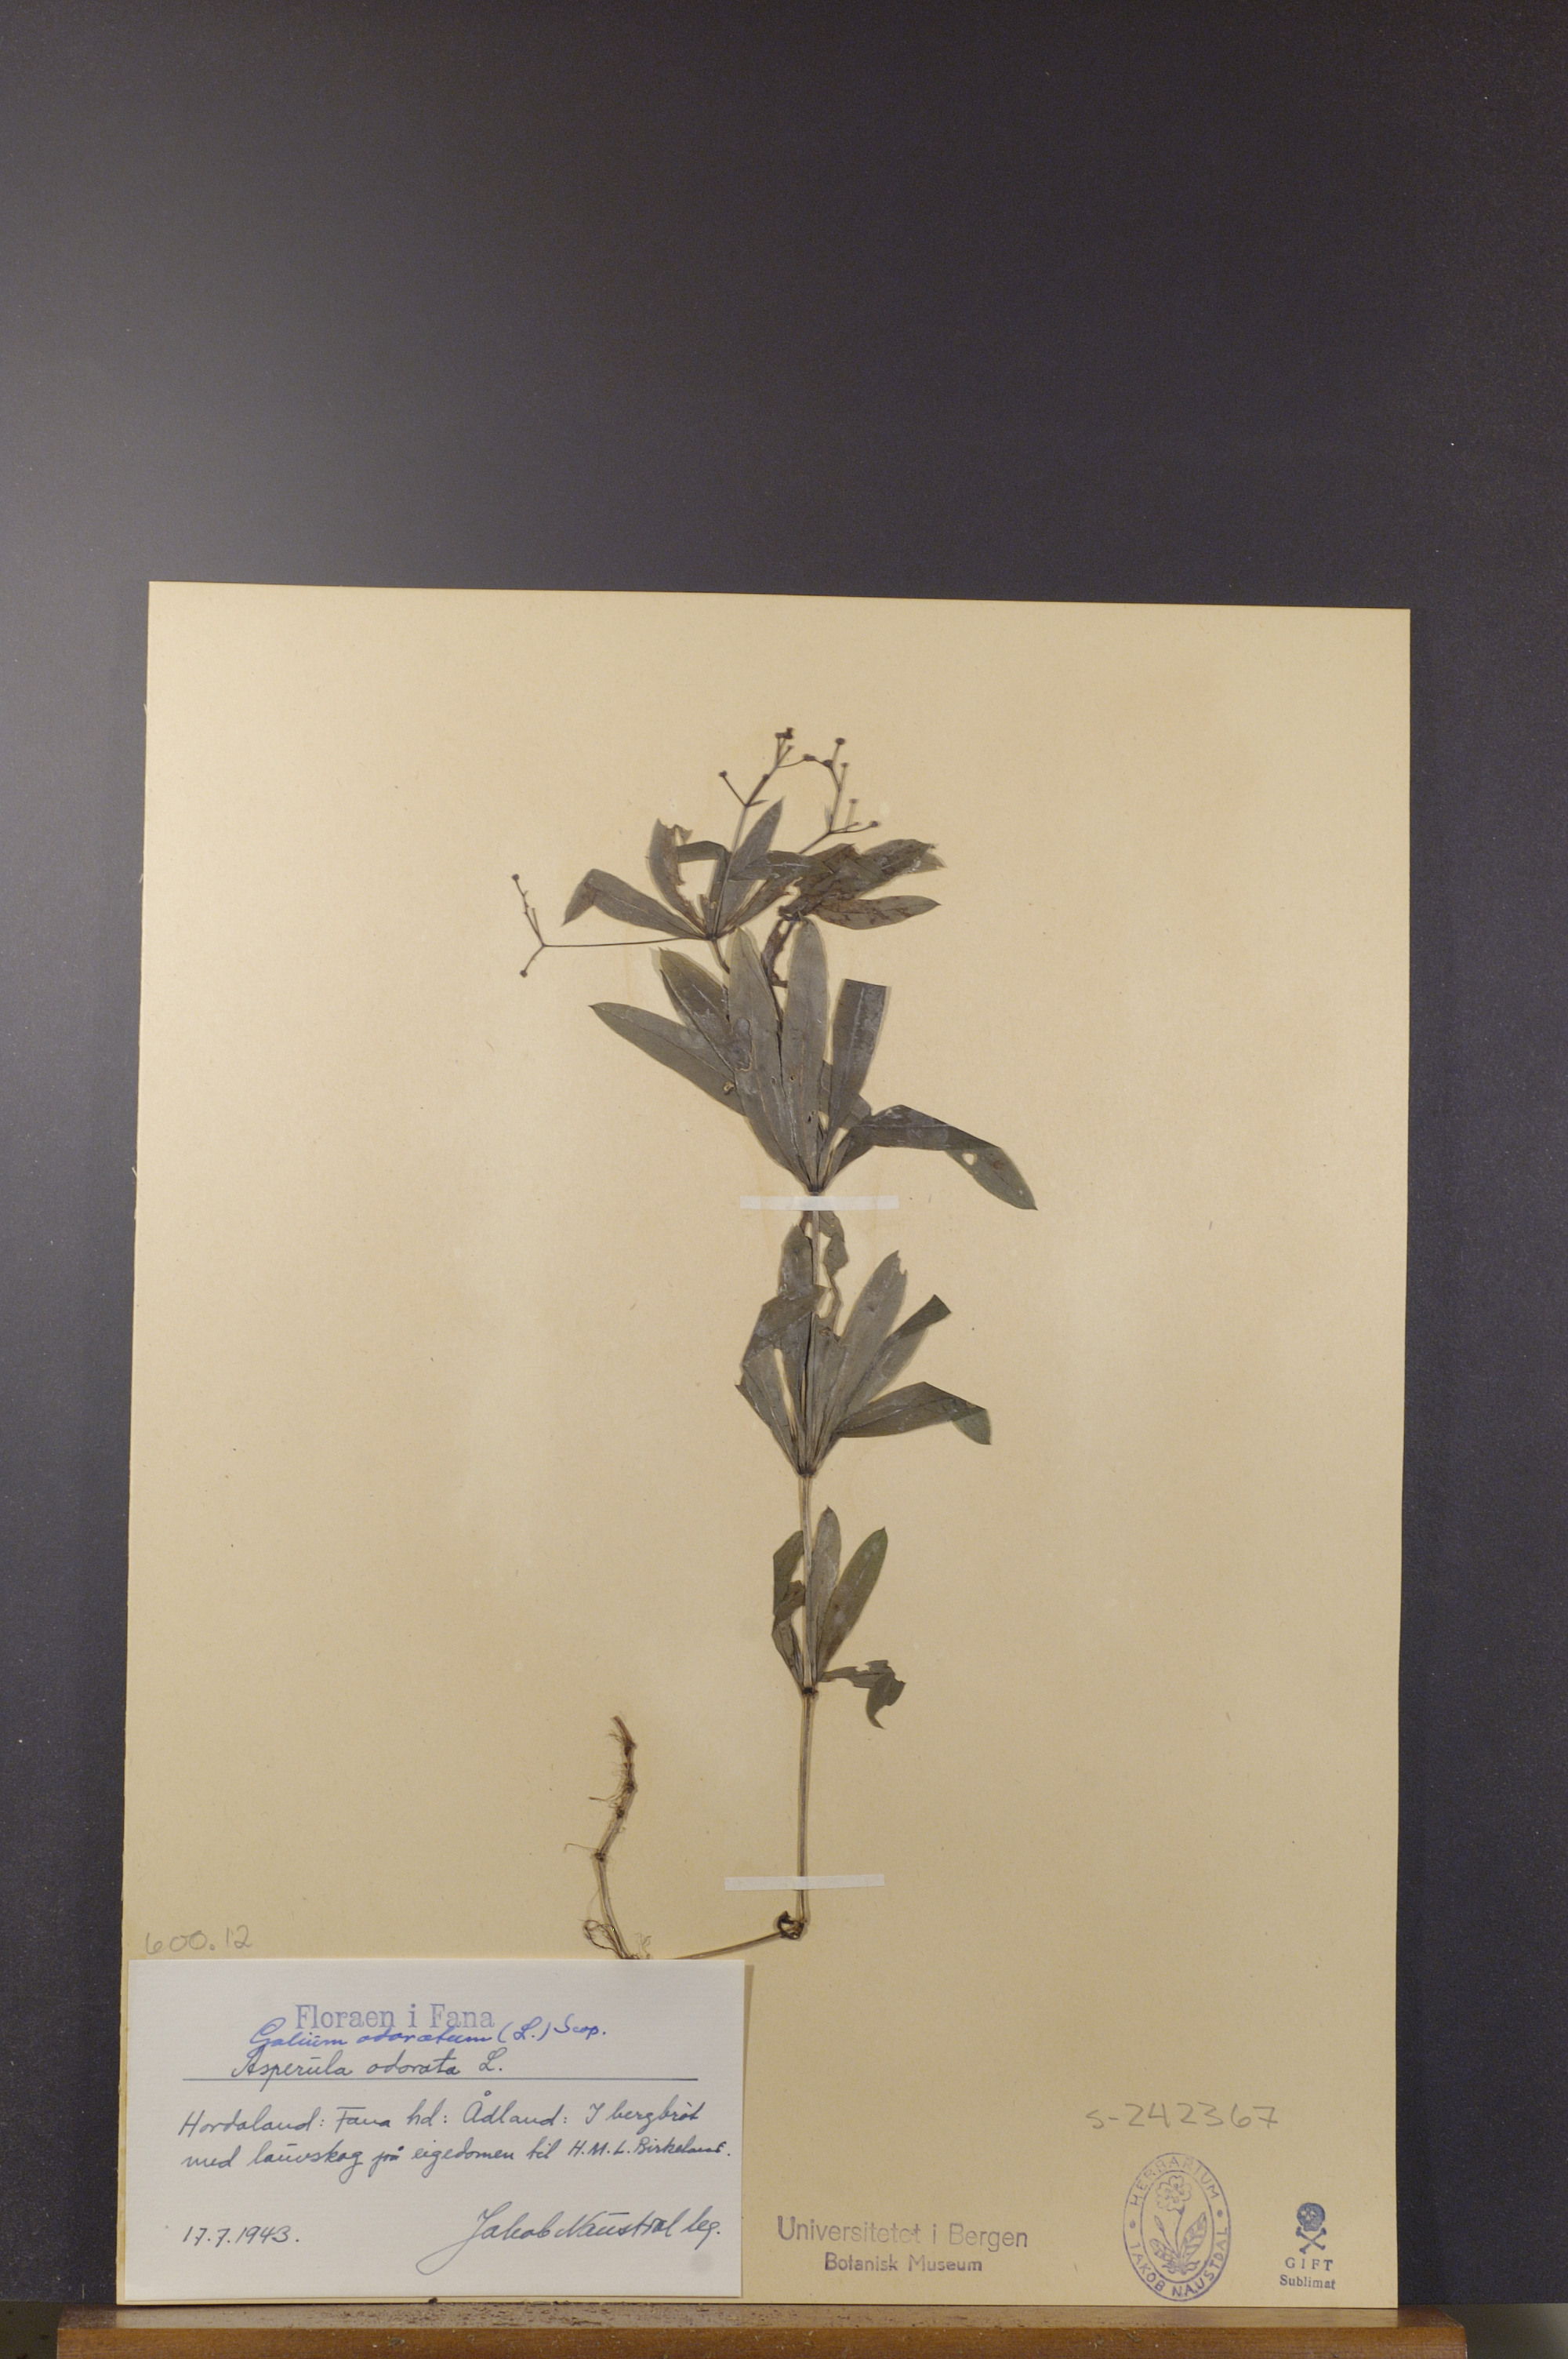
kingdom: Plantae
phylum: Tracheophyta
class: Magnoliopsida
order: Gentianales
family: Rubiaceae
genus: Galium
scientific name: Galium odoratum
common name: Sweet woodruff
